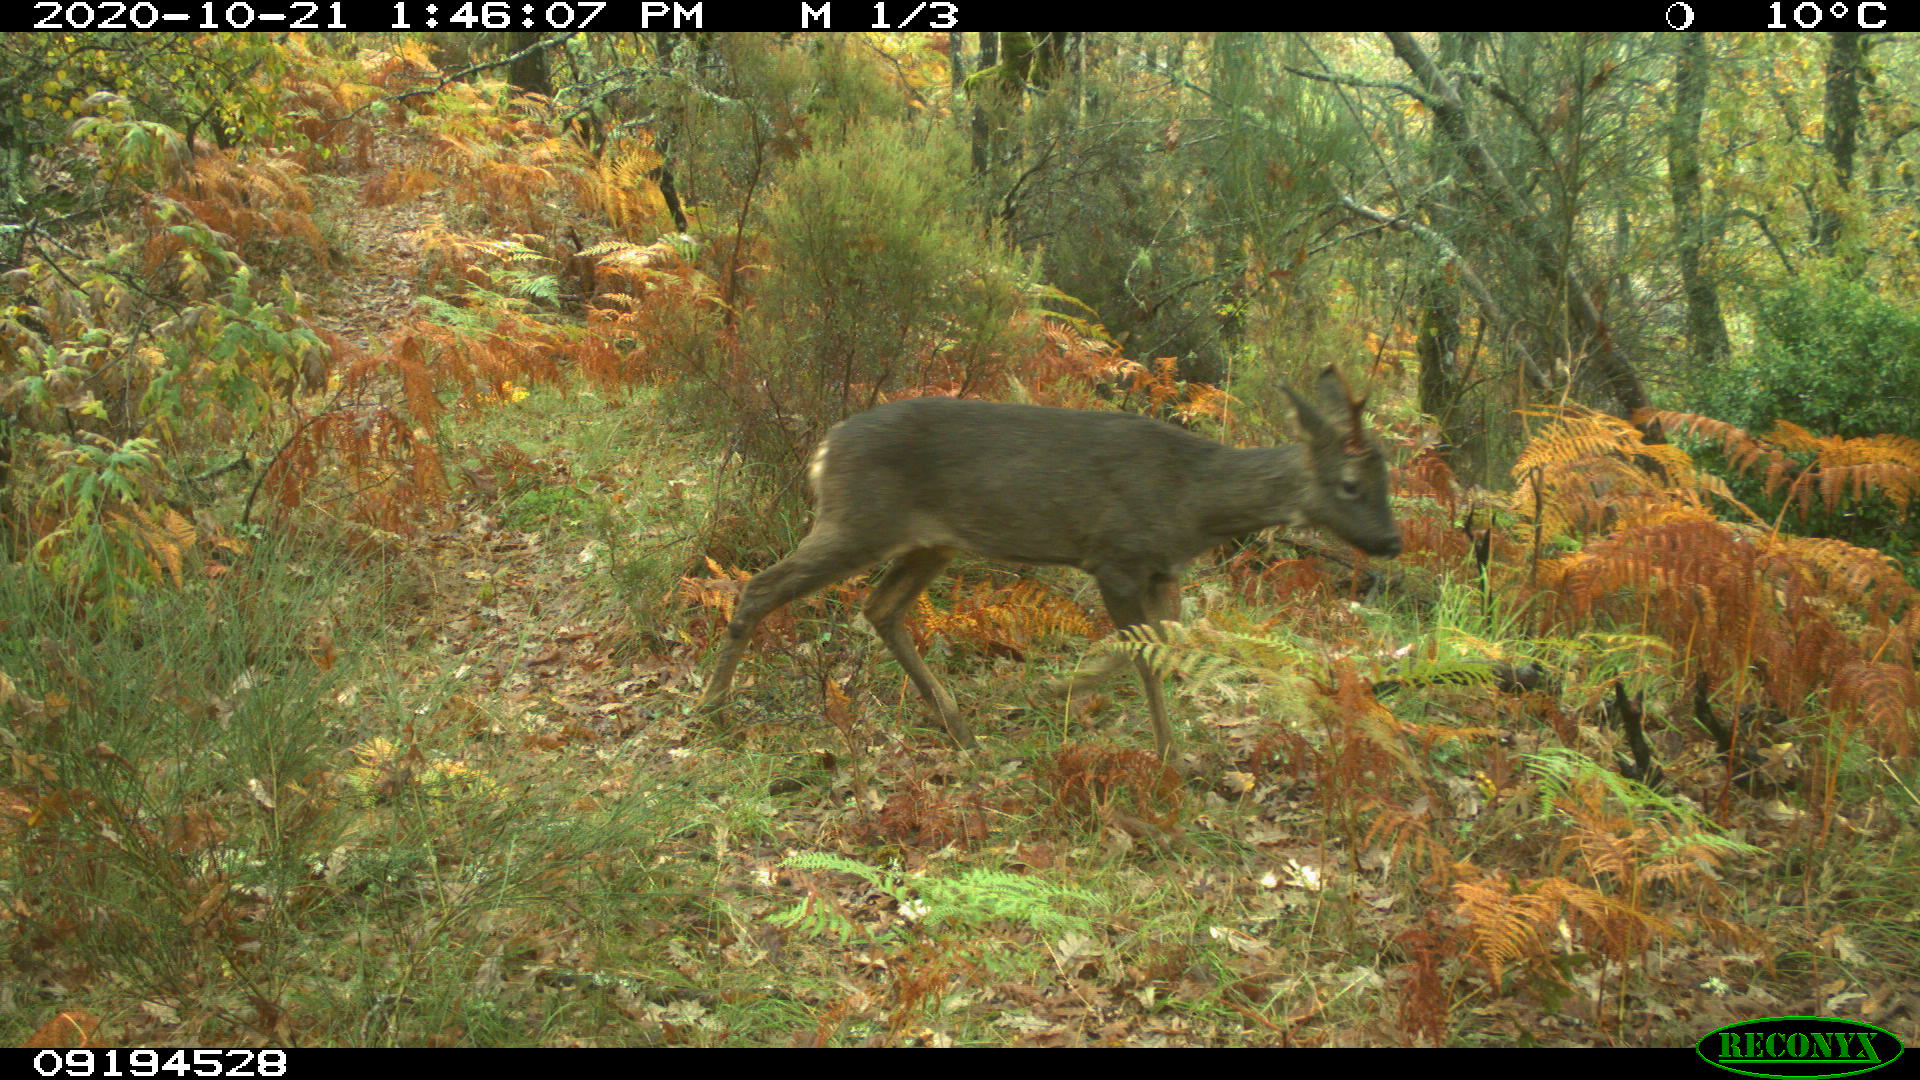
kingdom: Animalia
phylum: Chordata
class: Mammalia
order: Artiodactyla
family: Cervidae
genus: Capreolus
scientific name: Capreolus capreolus
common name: Western roe deer
